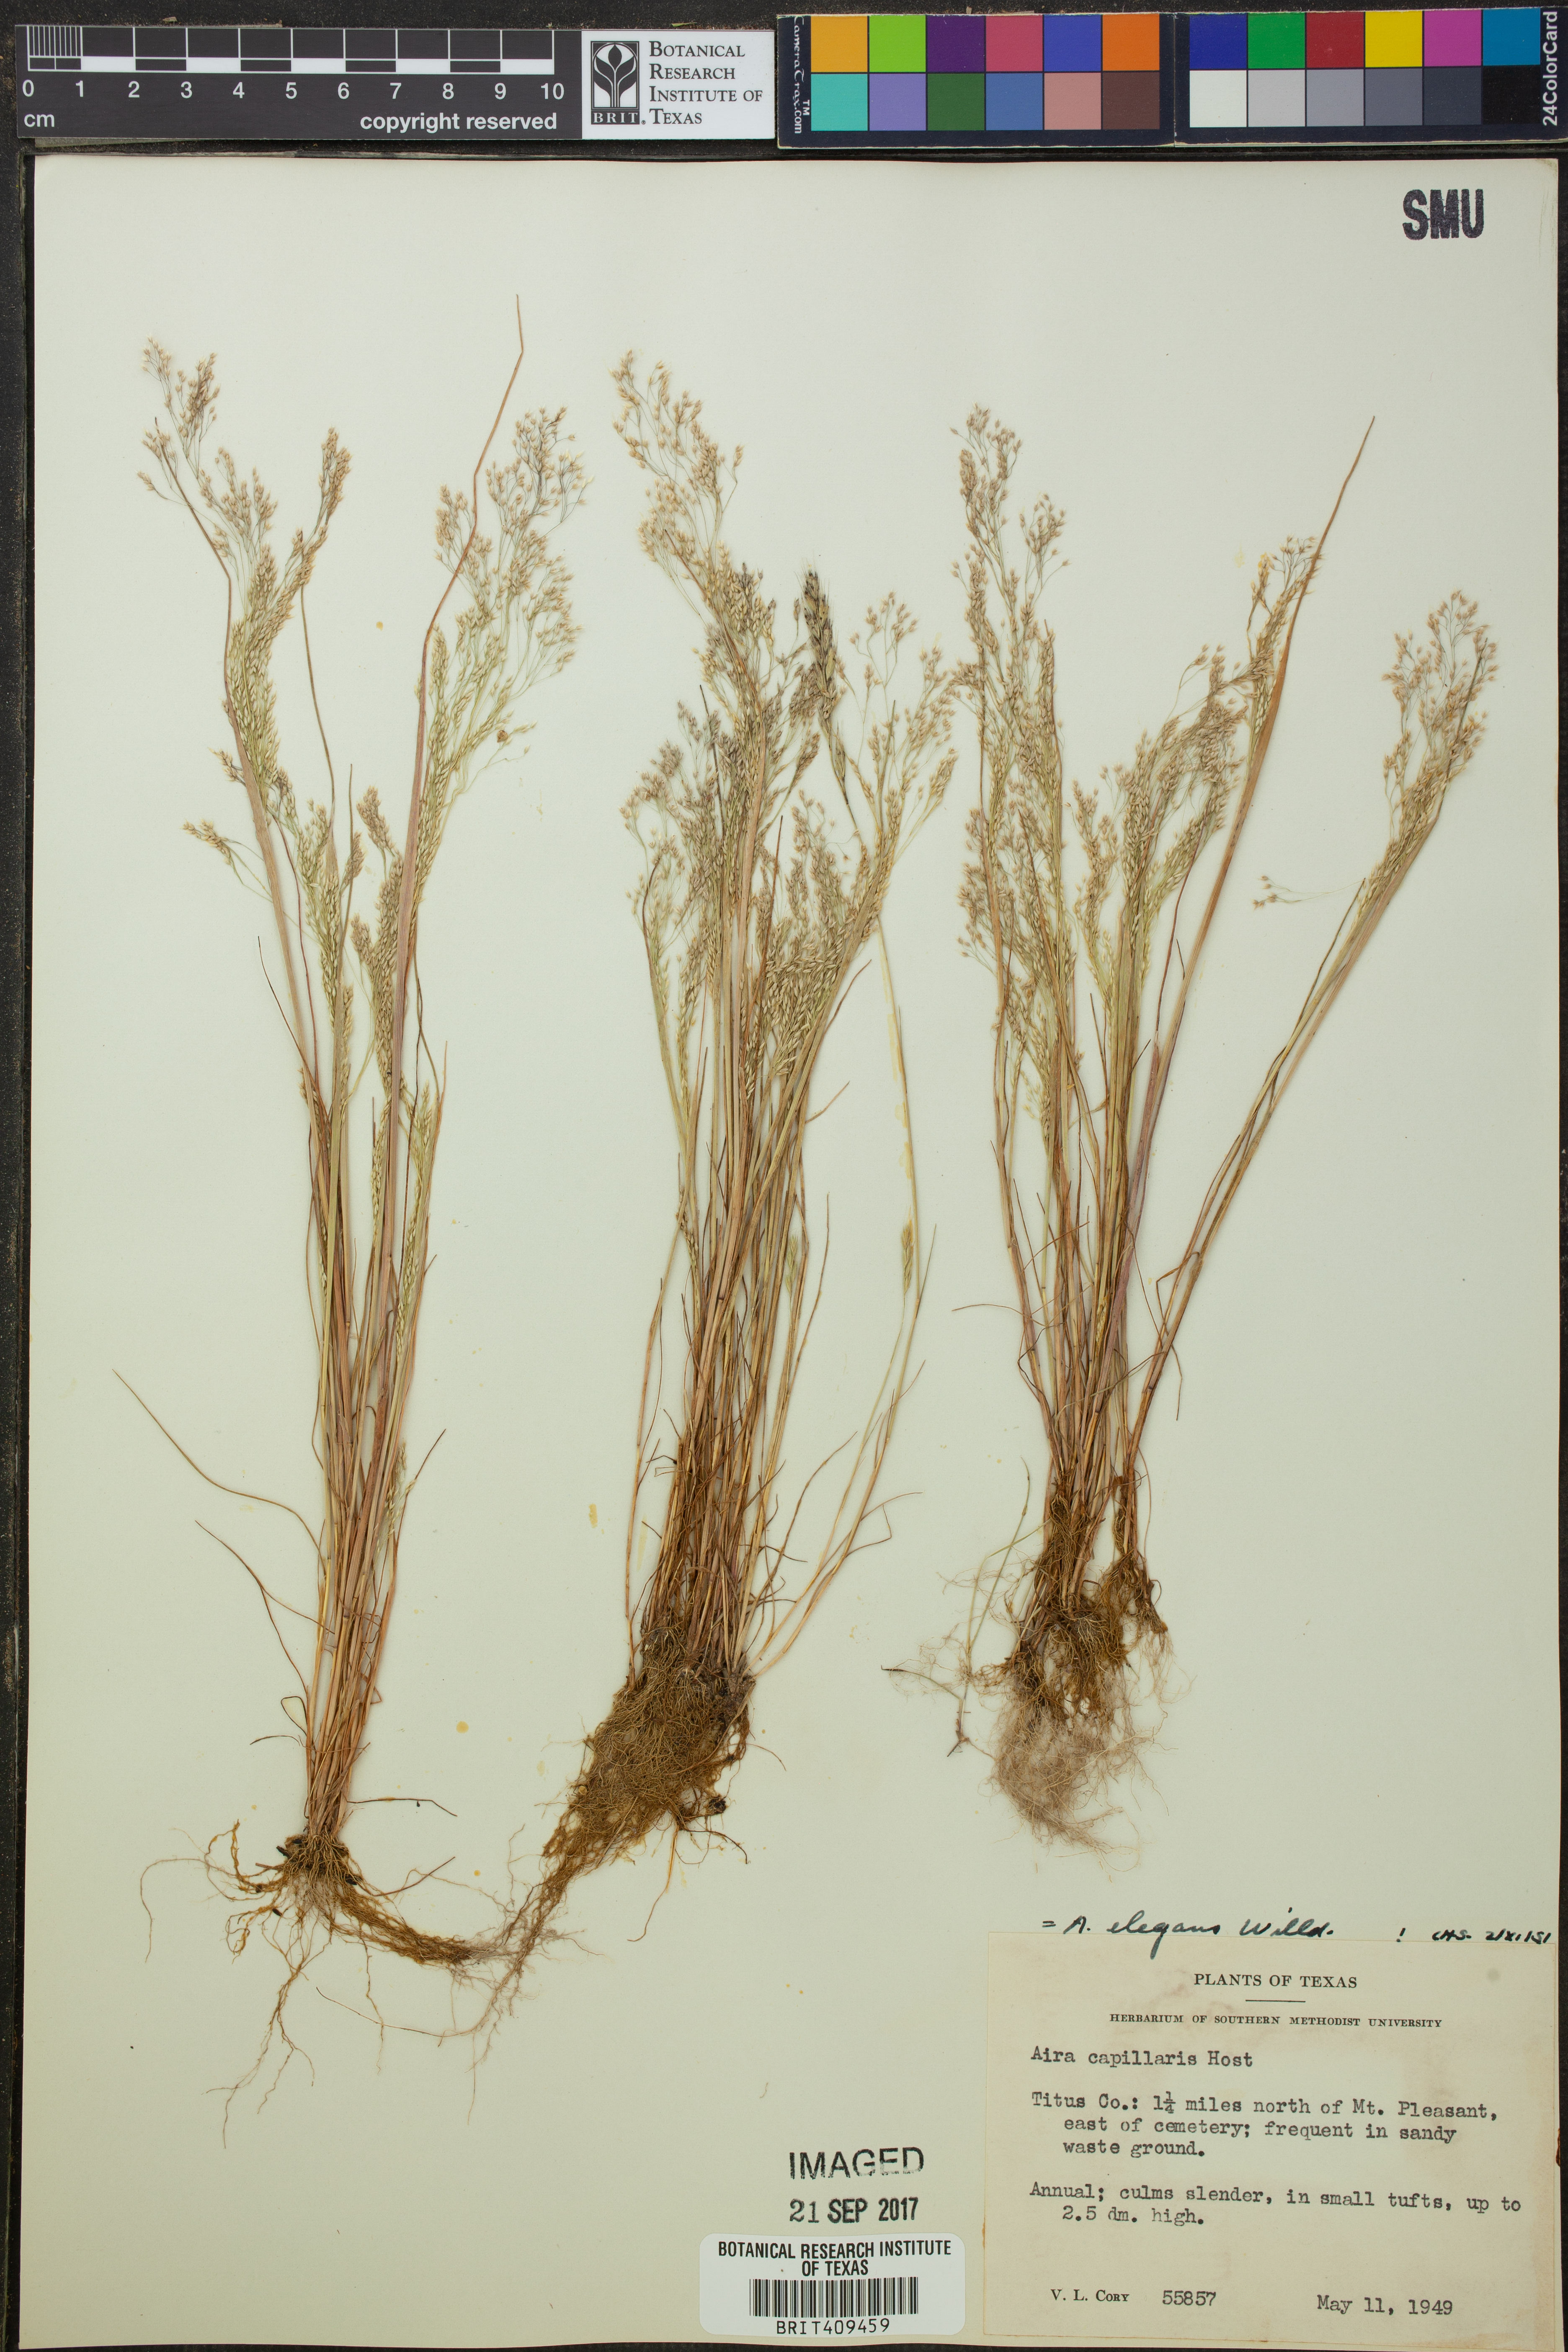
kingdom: Plantae
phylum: Tracheophyta
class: Liliopsida
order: Poales
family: Poaceae
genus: Aira
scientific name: Aira elegans
